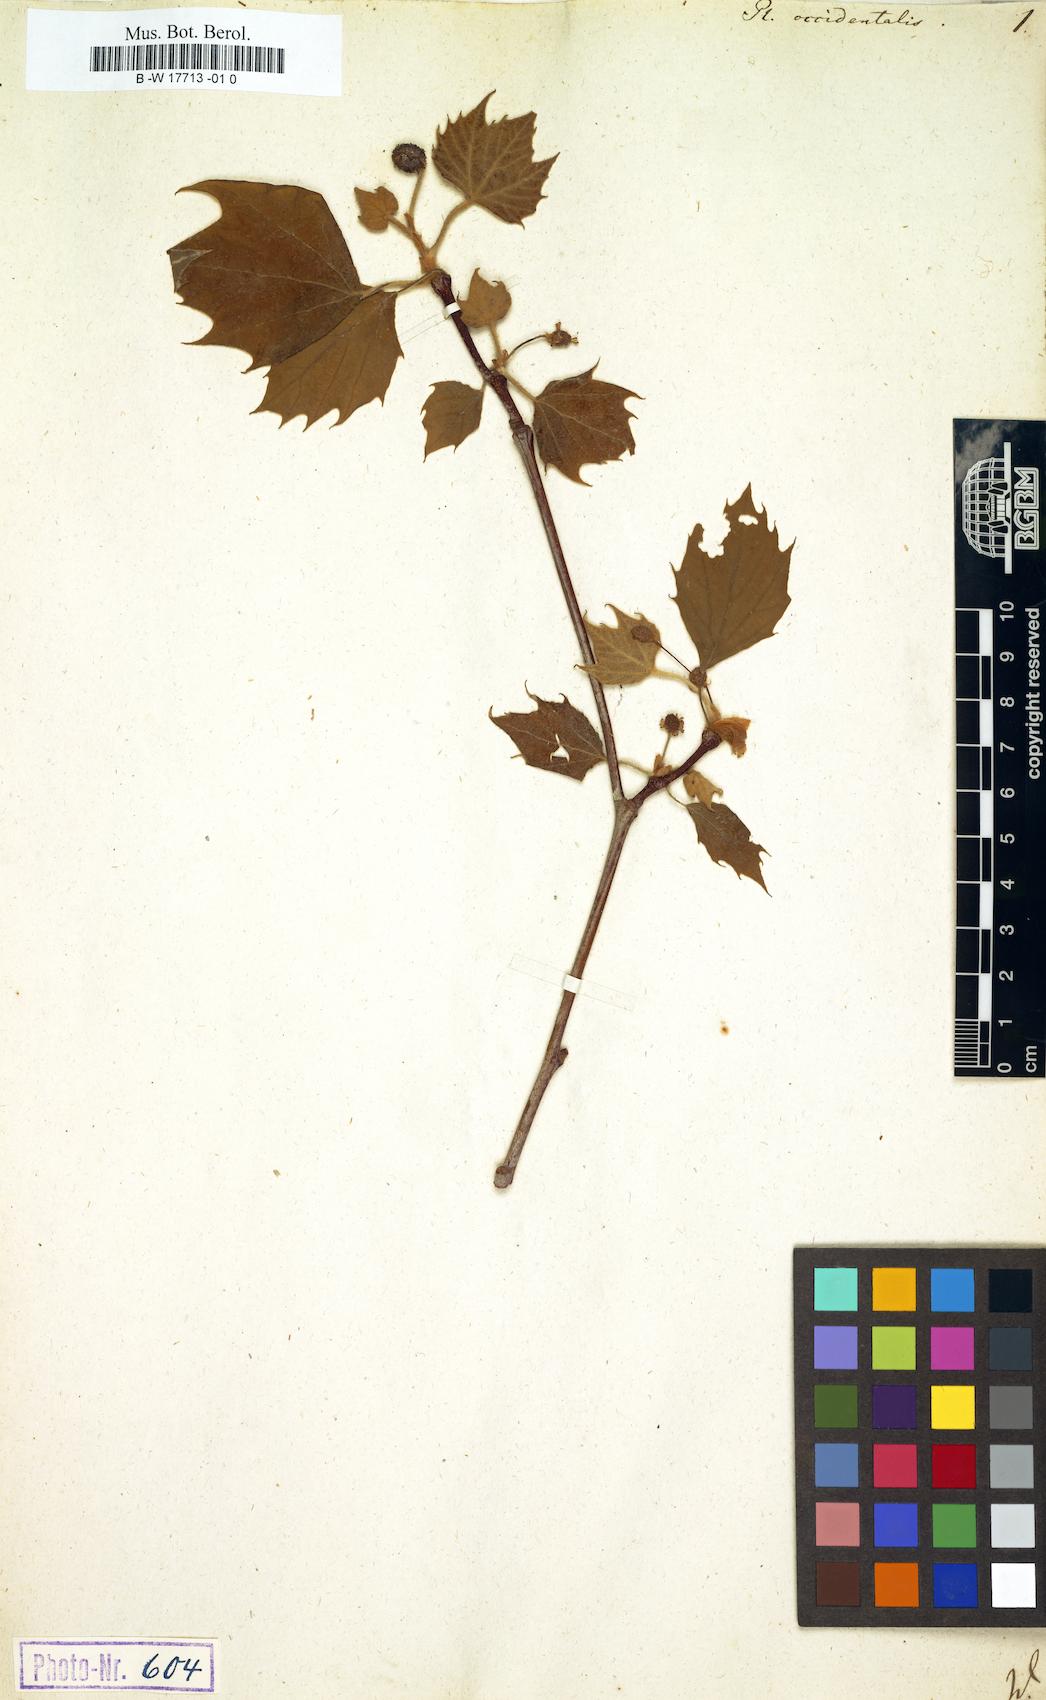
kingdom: Plantae
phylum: Tracheophyta
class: Magnoliopsida
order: Proteales
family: Platanaceae
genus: Platanus
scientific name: Platanus occidentalis
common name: American sycamore
